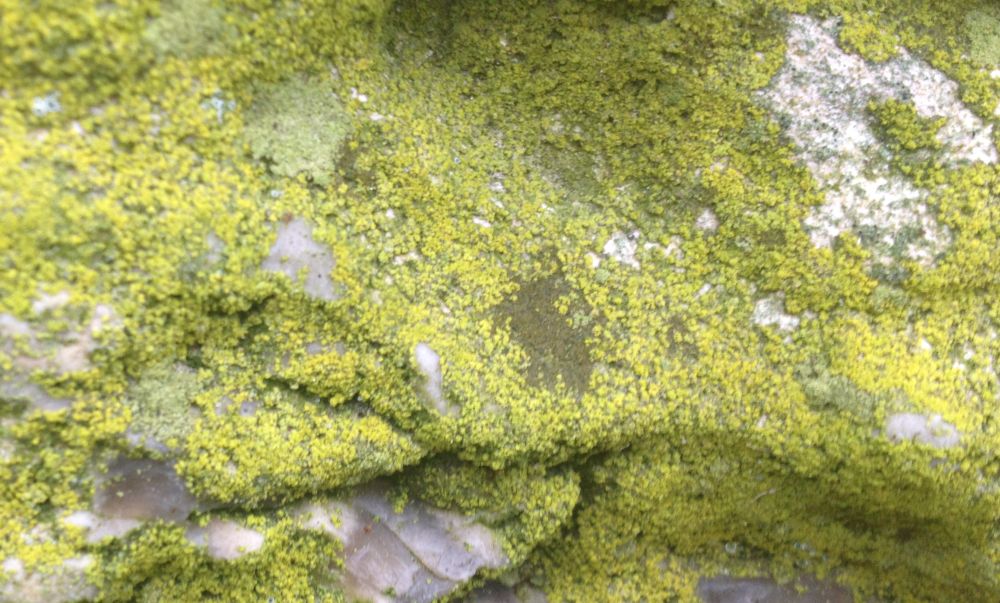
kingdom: Fungi
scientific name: Fungi
